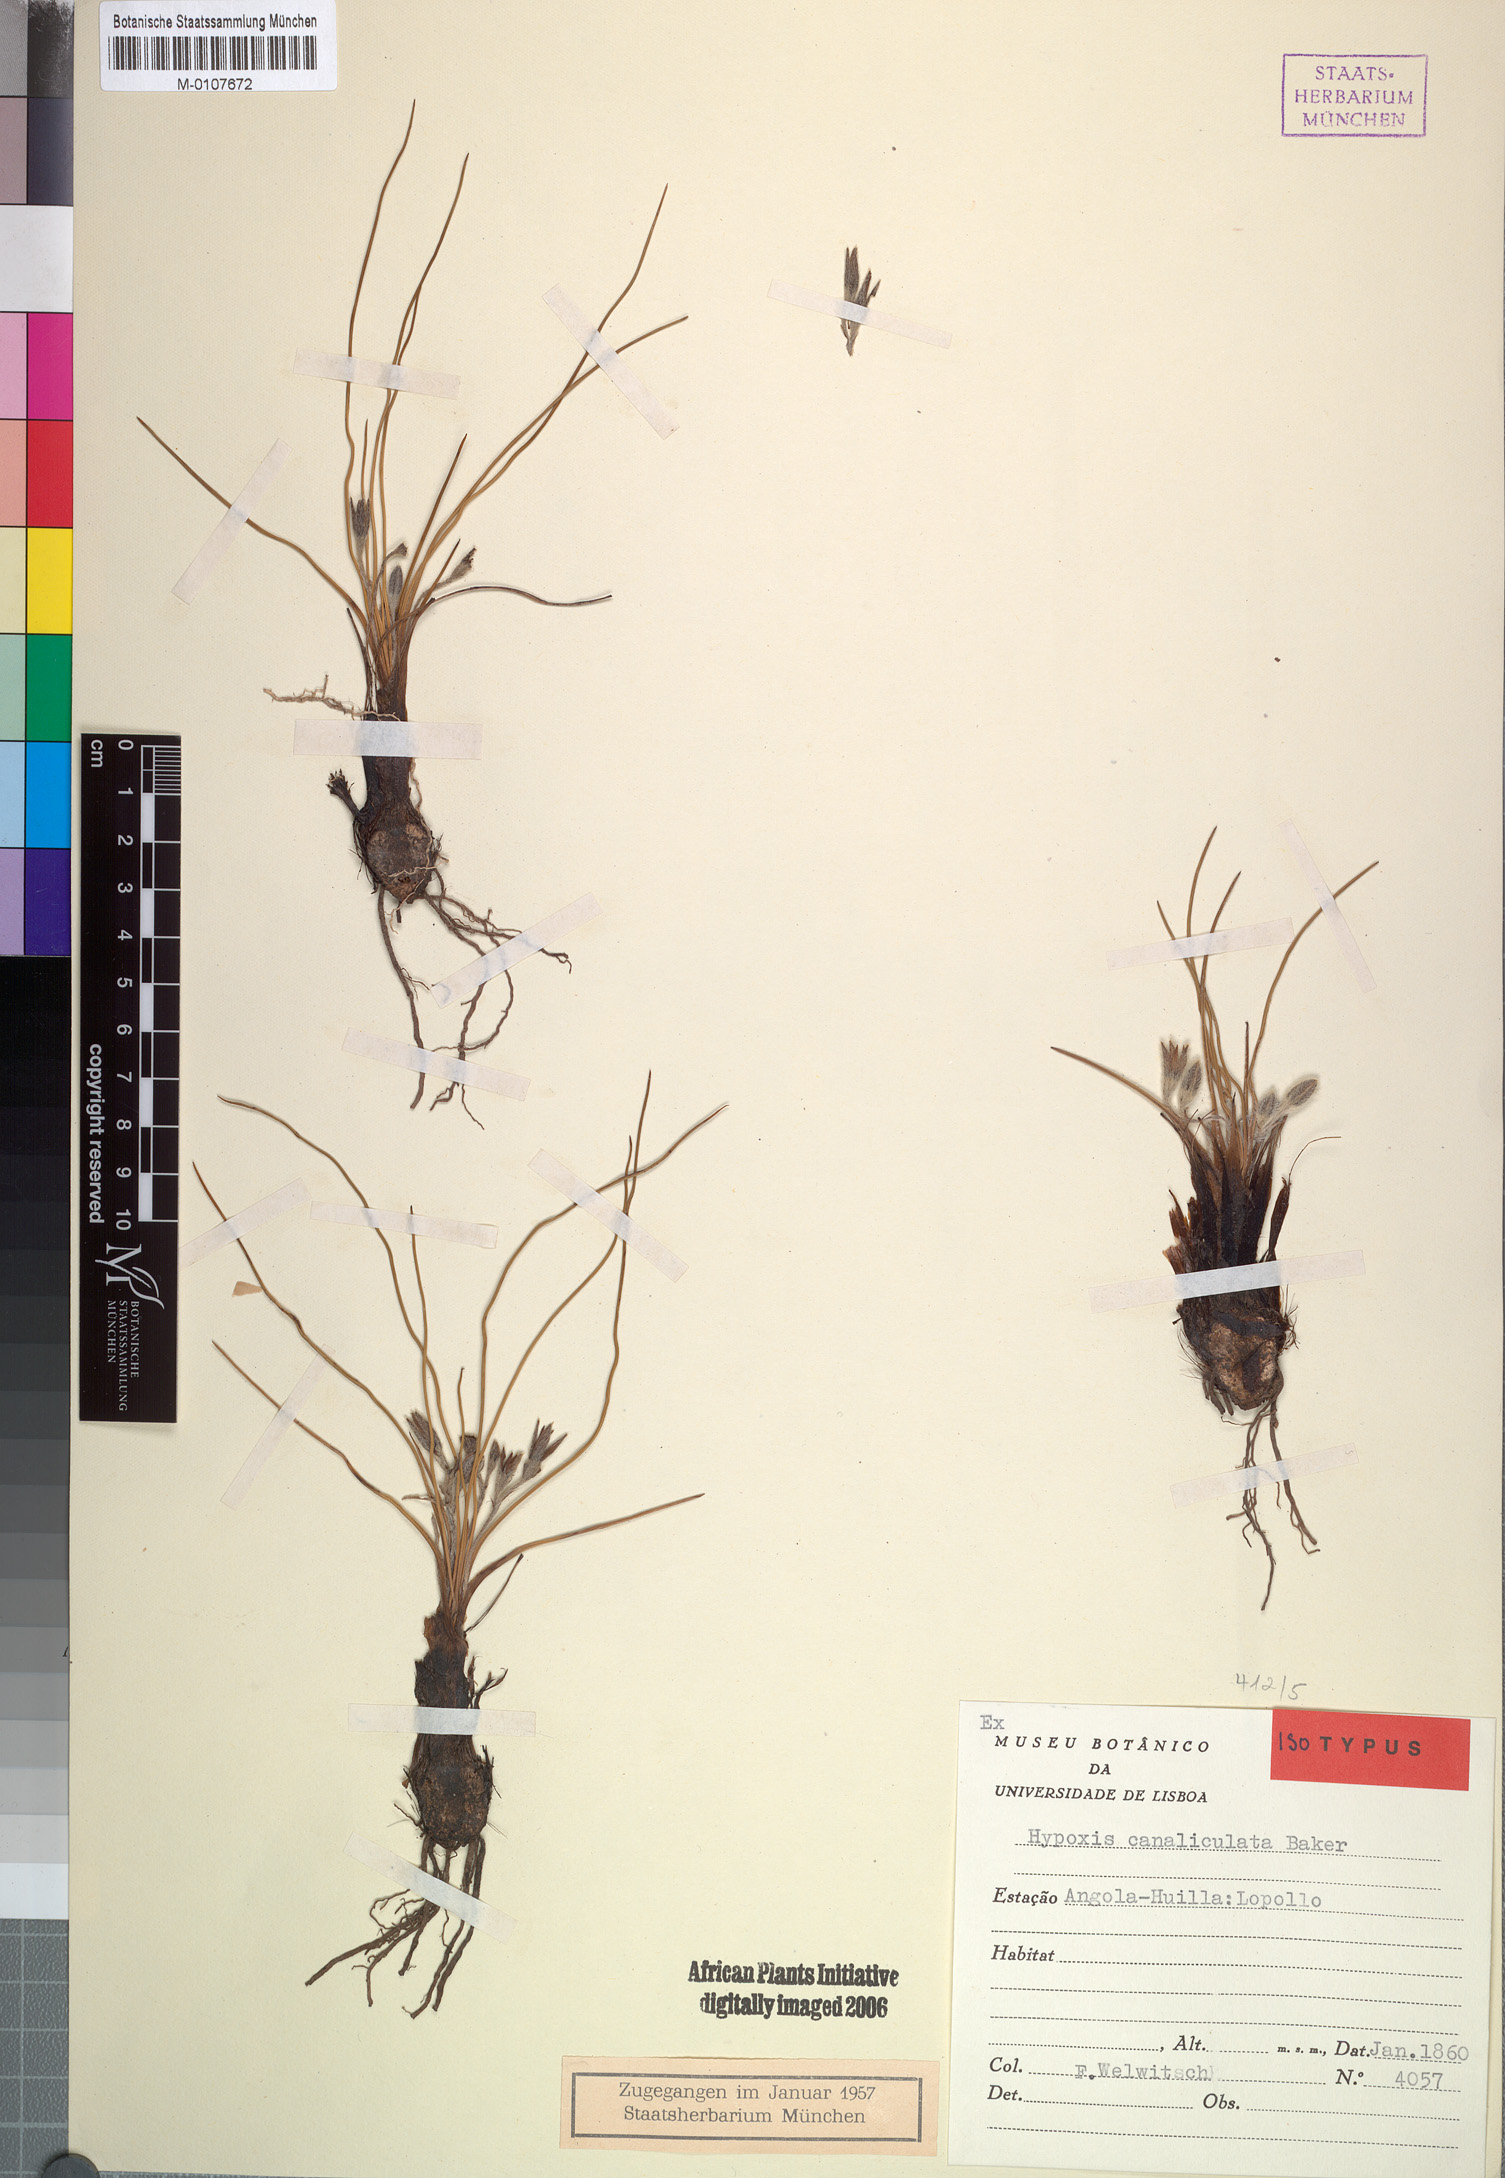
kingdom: Plantae
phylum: Tracheophyta
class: Liliopsida
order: Asparagales
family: Hypoxidaceae
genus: Hypoxis
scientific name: Hypoxis canaliculata
